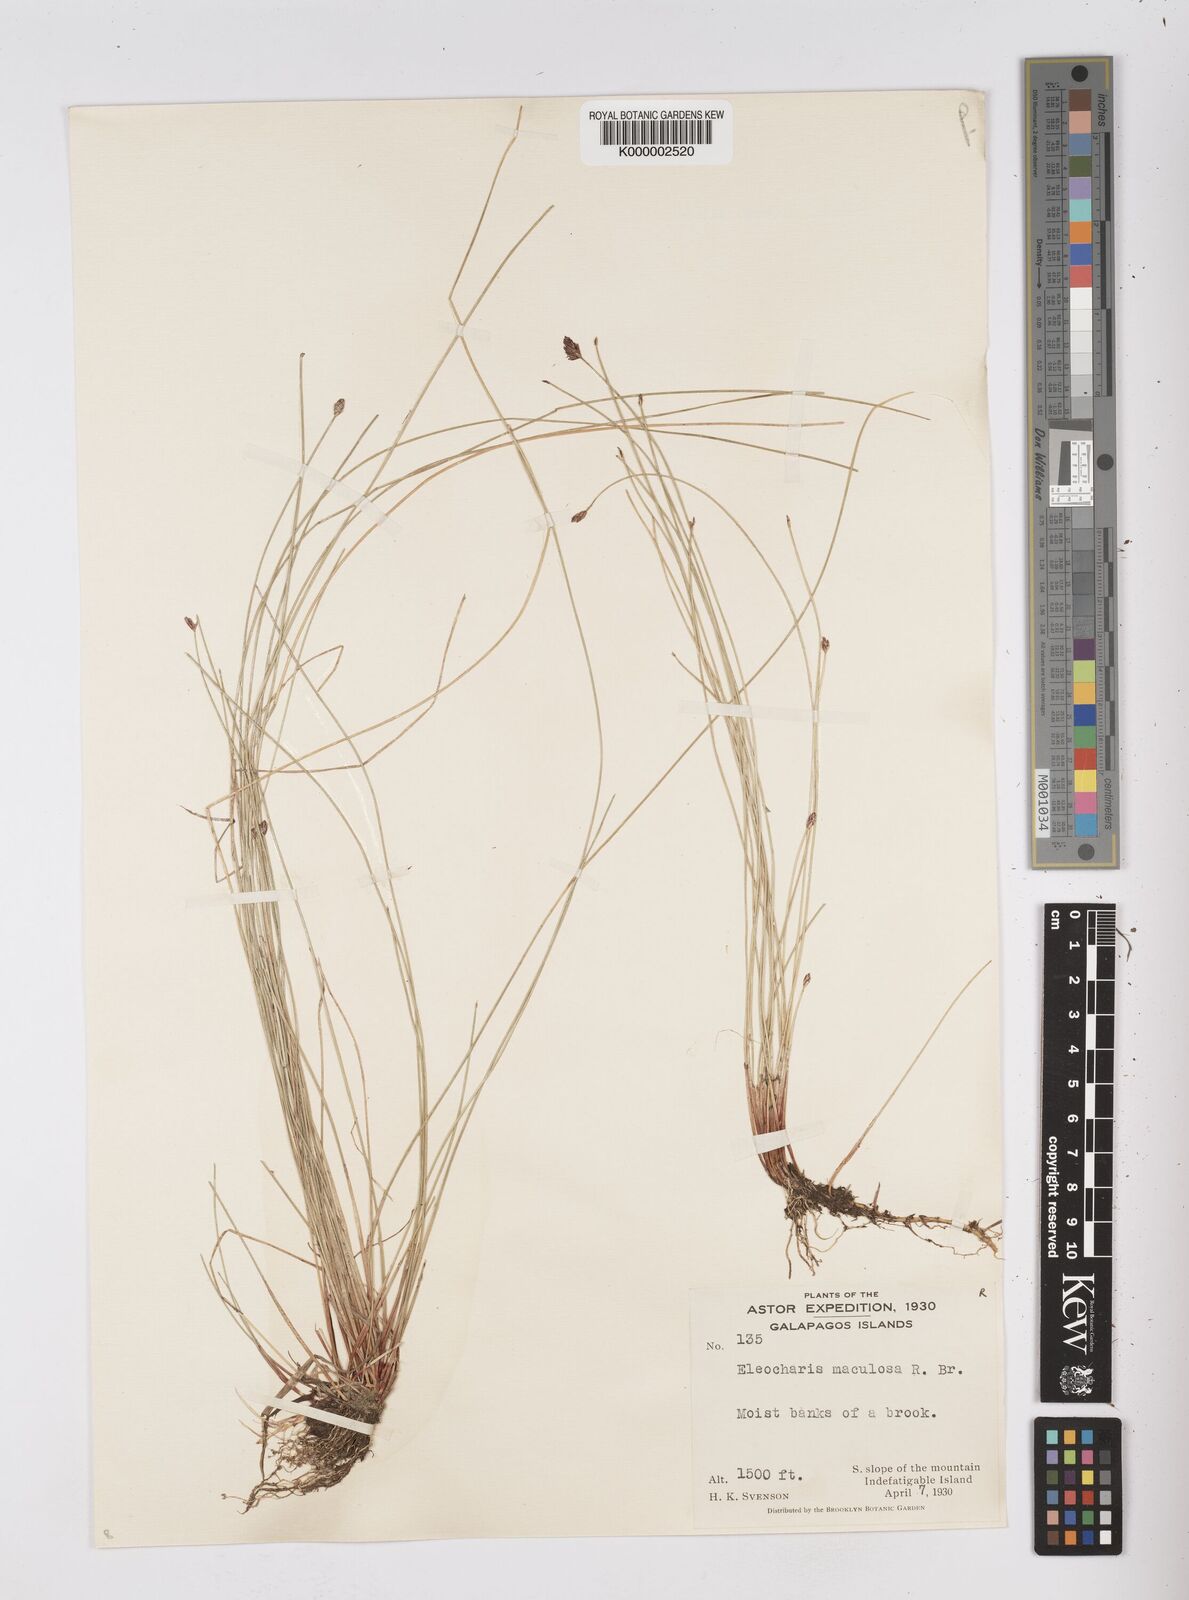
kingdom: Plantae
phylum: Tracheophyta
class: Liliopsida
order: Poales
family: Cyperaceae
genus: Eleocharis
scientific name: Eleocharis maculosa
